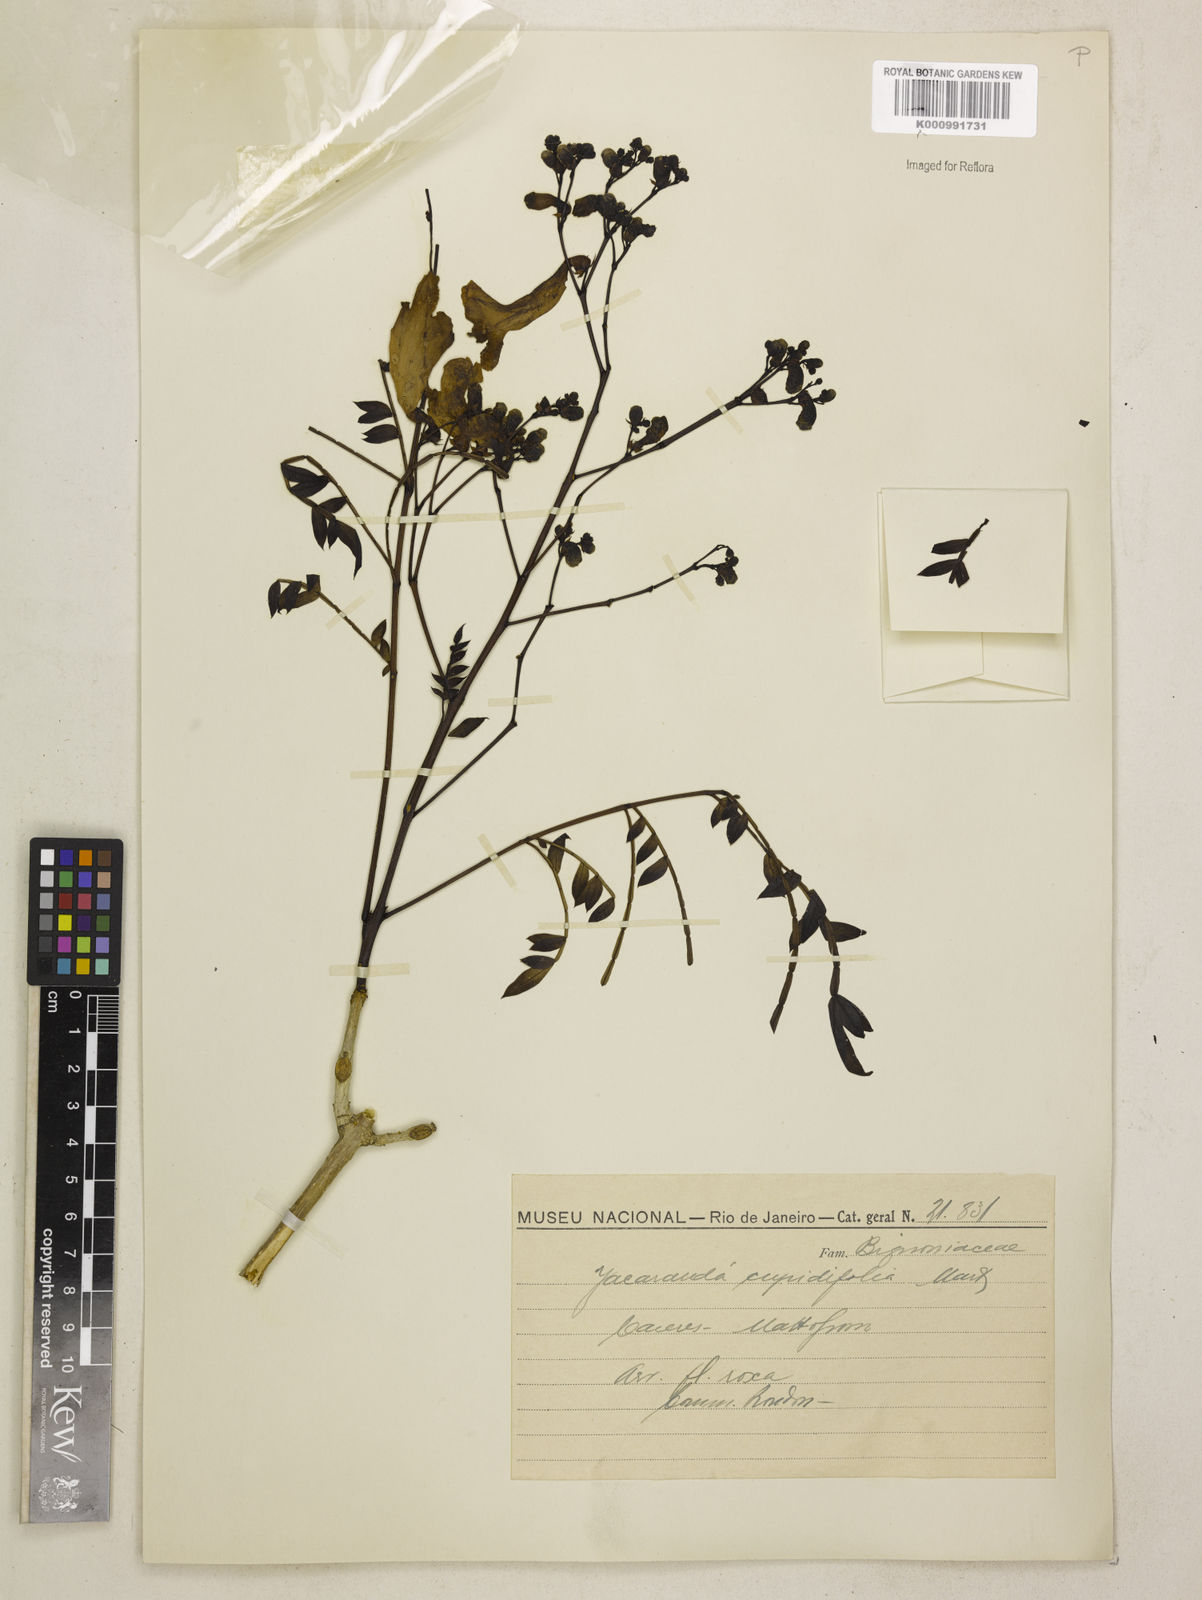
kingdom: Plantae
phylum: Tracheophyta
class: Magnoliopsida
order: Lamiales
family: Bignoniaceae
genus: Jacaranda
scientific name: Jacaranda cuspidifolia
